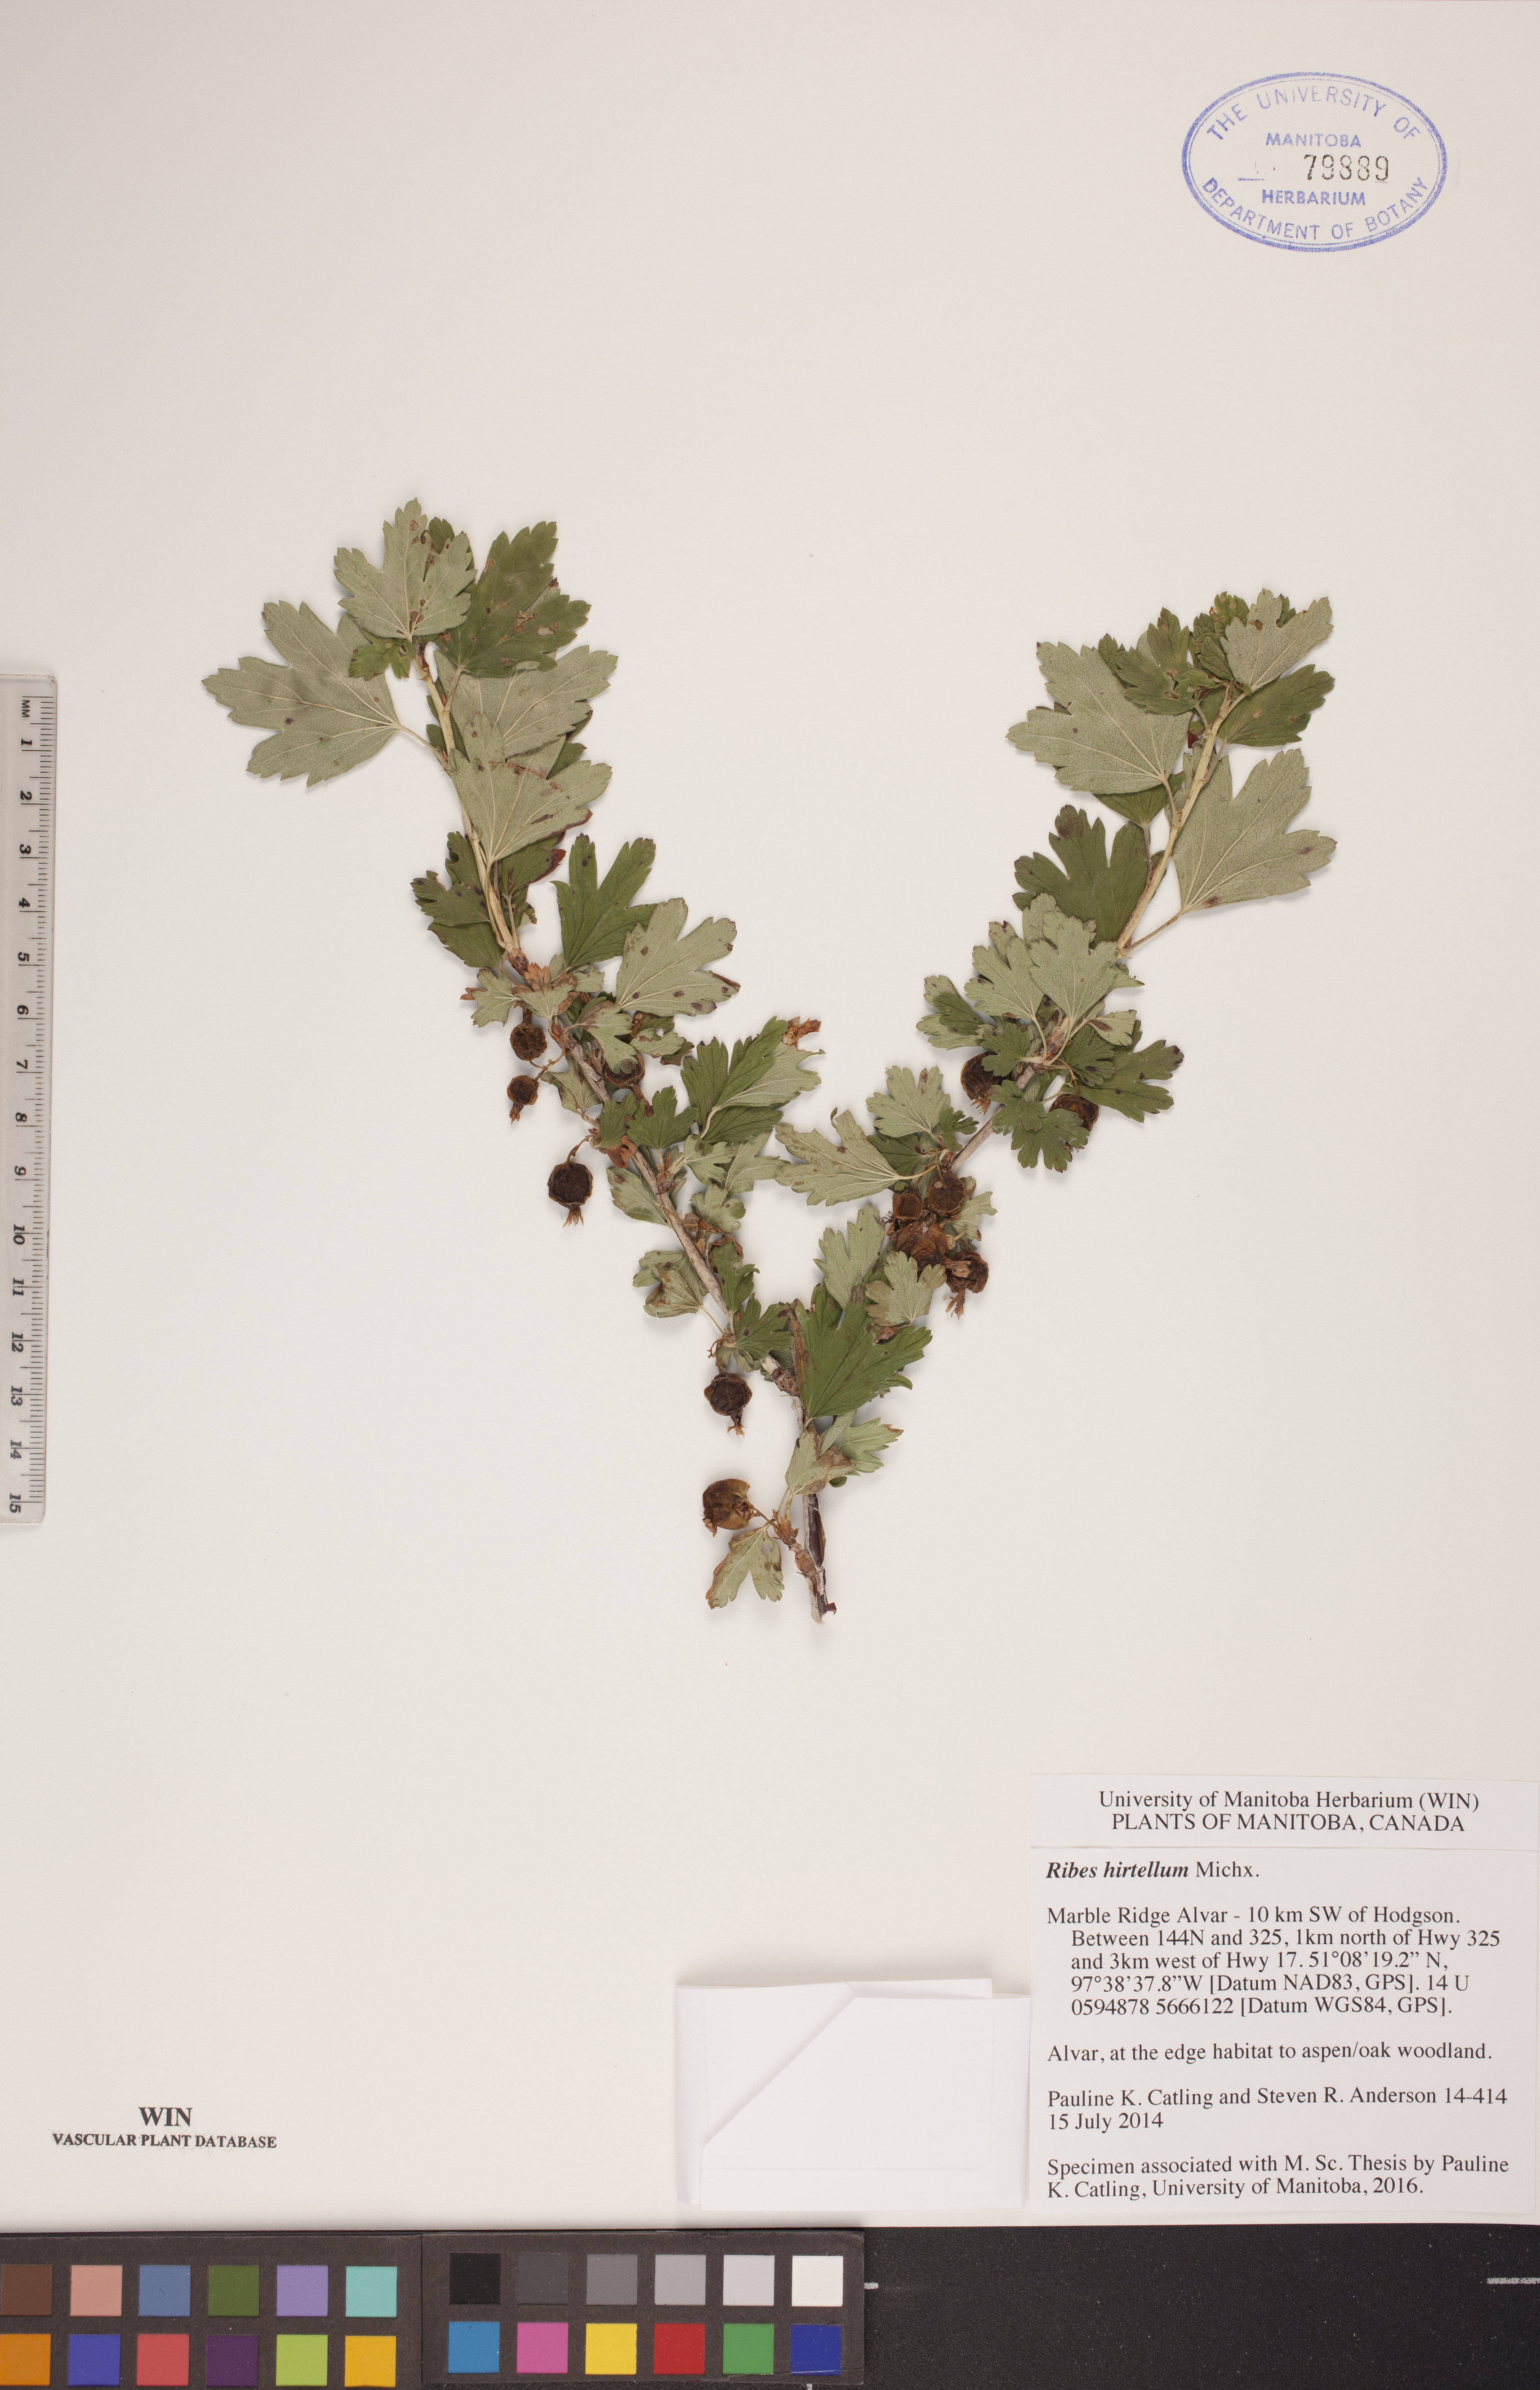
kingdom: Plantae
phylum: Tracheophyta
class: Magnoliopsida
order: Saxifragales
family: Grossulariaceae
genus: Ribes
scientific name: Ribes hirtellum
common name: Hairy gooseberry
